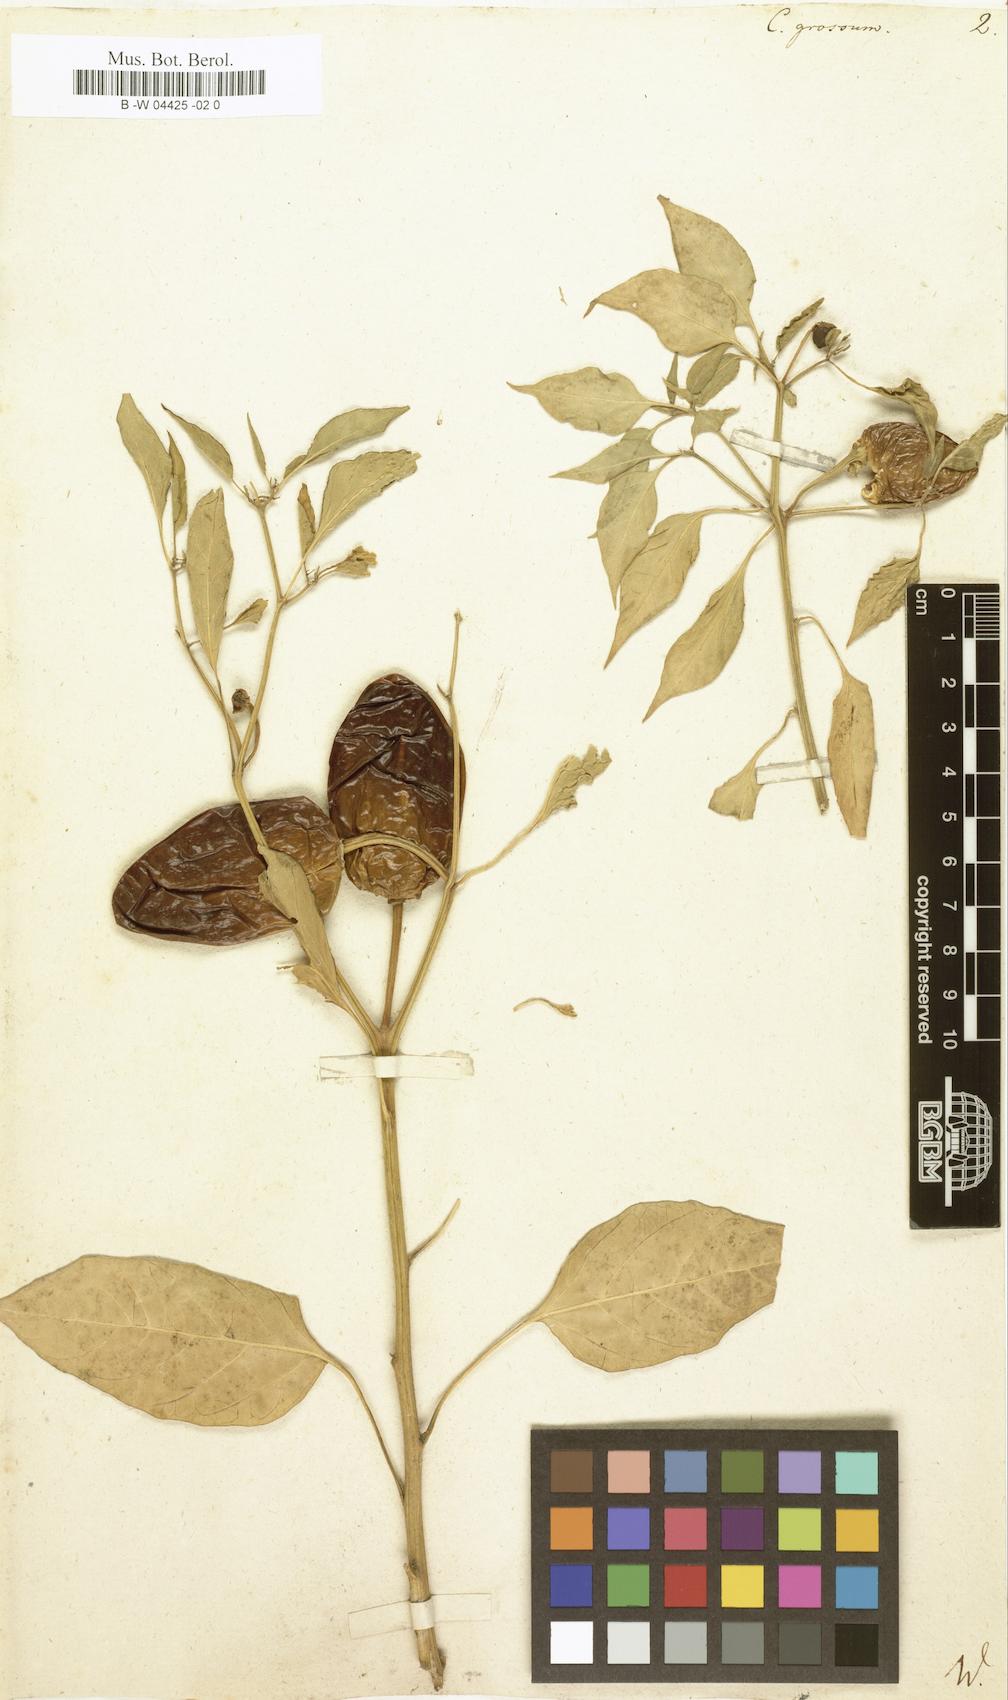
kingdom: Plantae
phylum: Tracheophyta
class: Magnoliopsida
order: Solanales
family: Solanaceae
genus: Capsicum
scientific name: Capsicum annuum
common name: Sweet pepper
